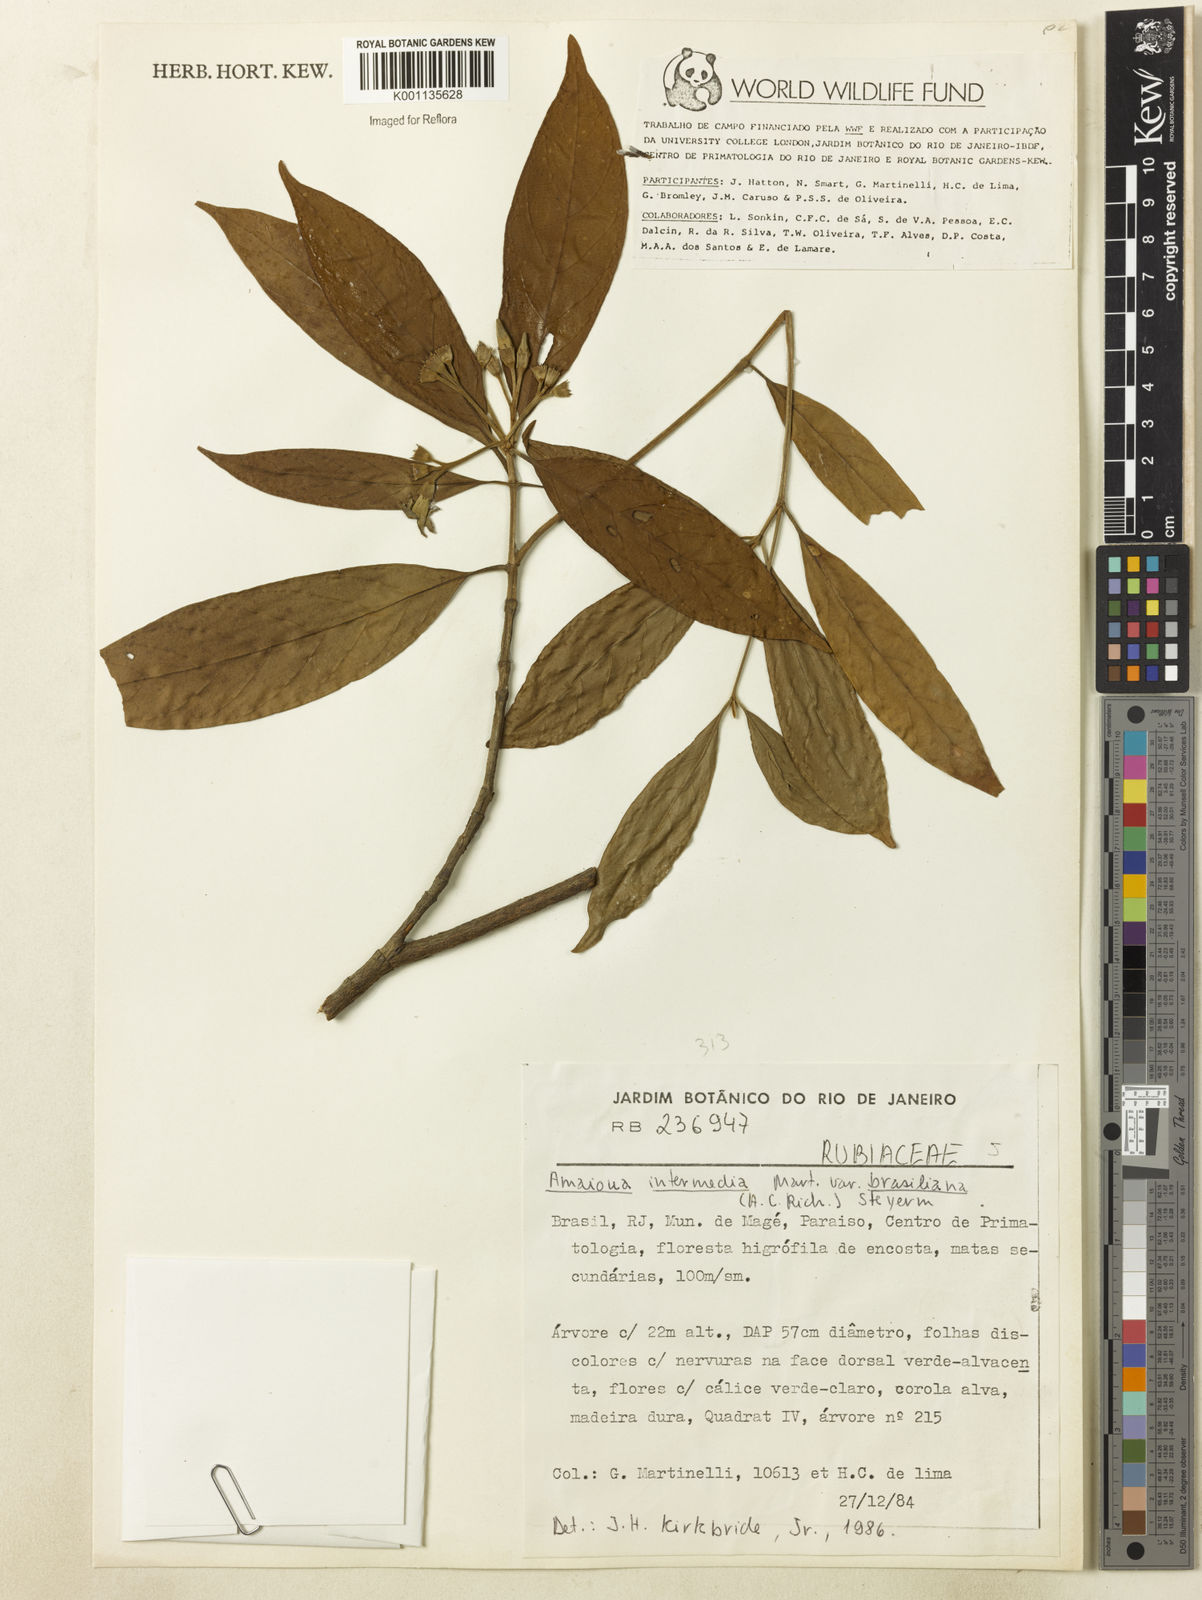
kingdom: Plantae
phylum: Tracheophyta
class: Magnoliopsida
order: Gentianales
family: Rubiaceae
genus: Amaioua
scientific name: Amaioua intermedia
